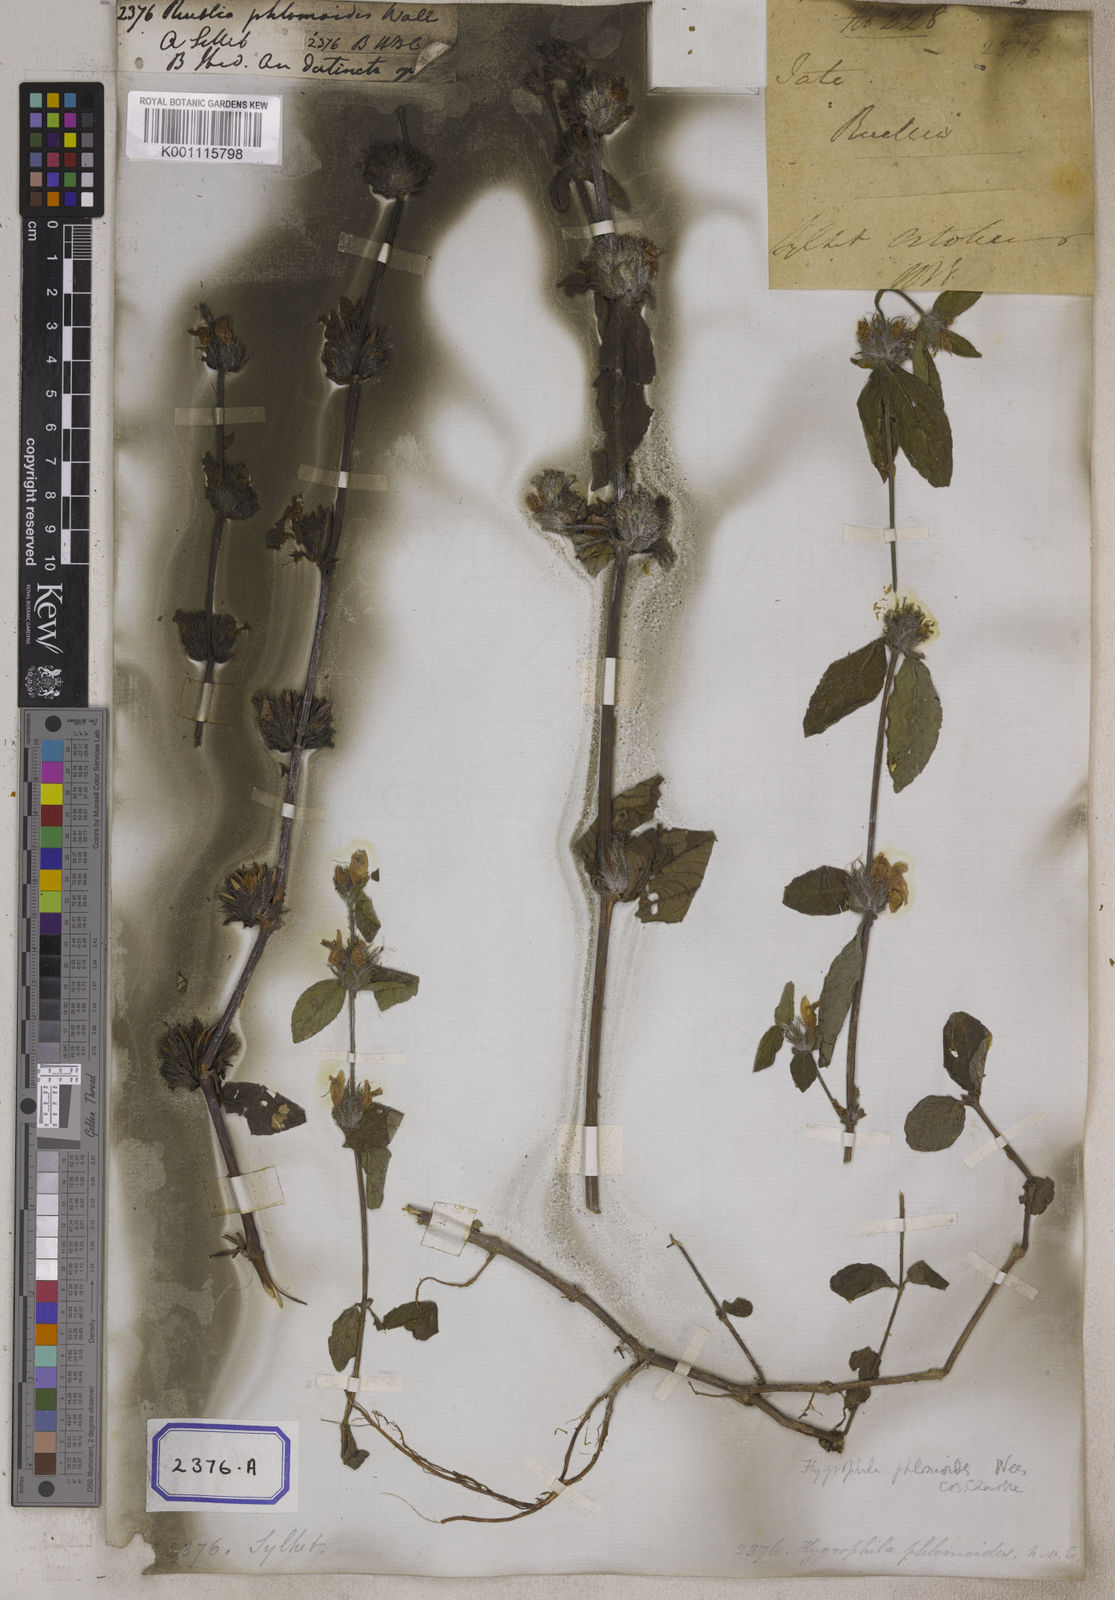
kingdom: Plantae
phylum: Tracheophyta
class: Magnoliopsida
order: Lamiales
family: Acanthaceae
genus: Hygrophila
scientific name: Hygrophila phlomoides
